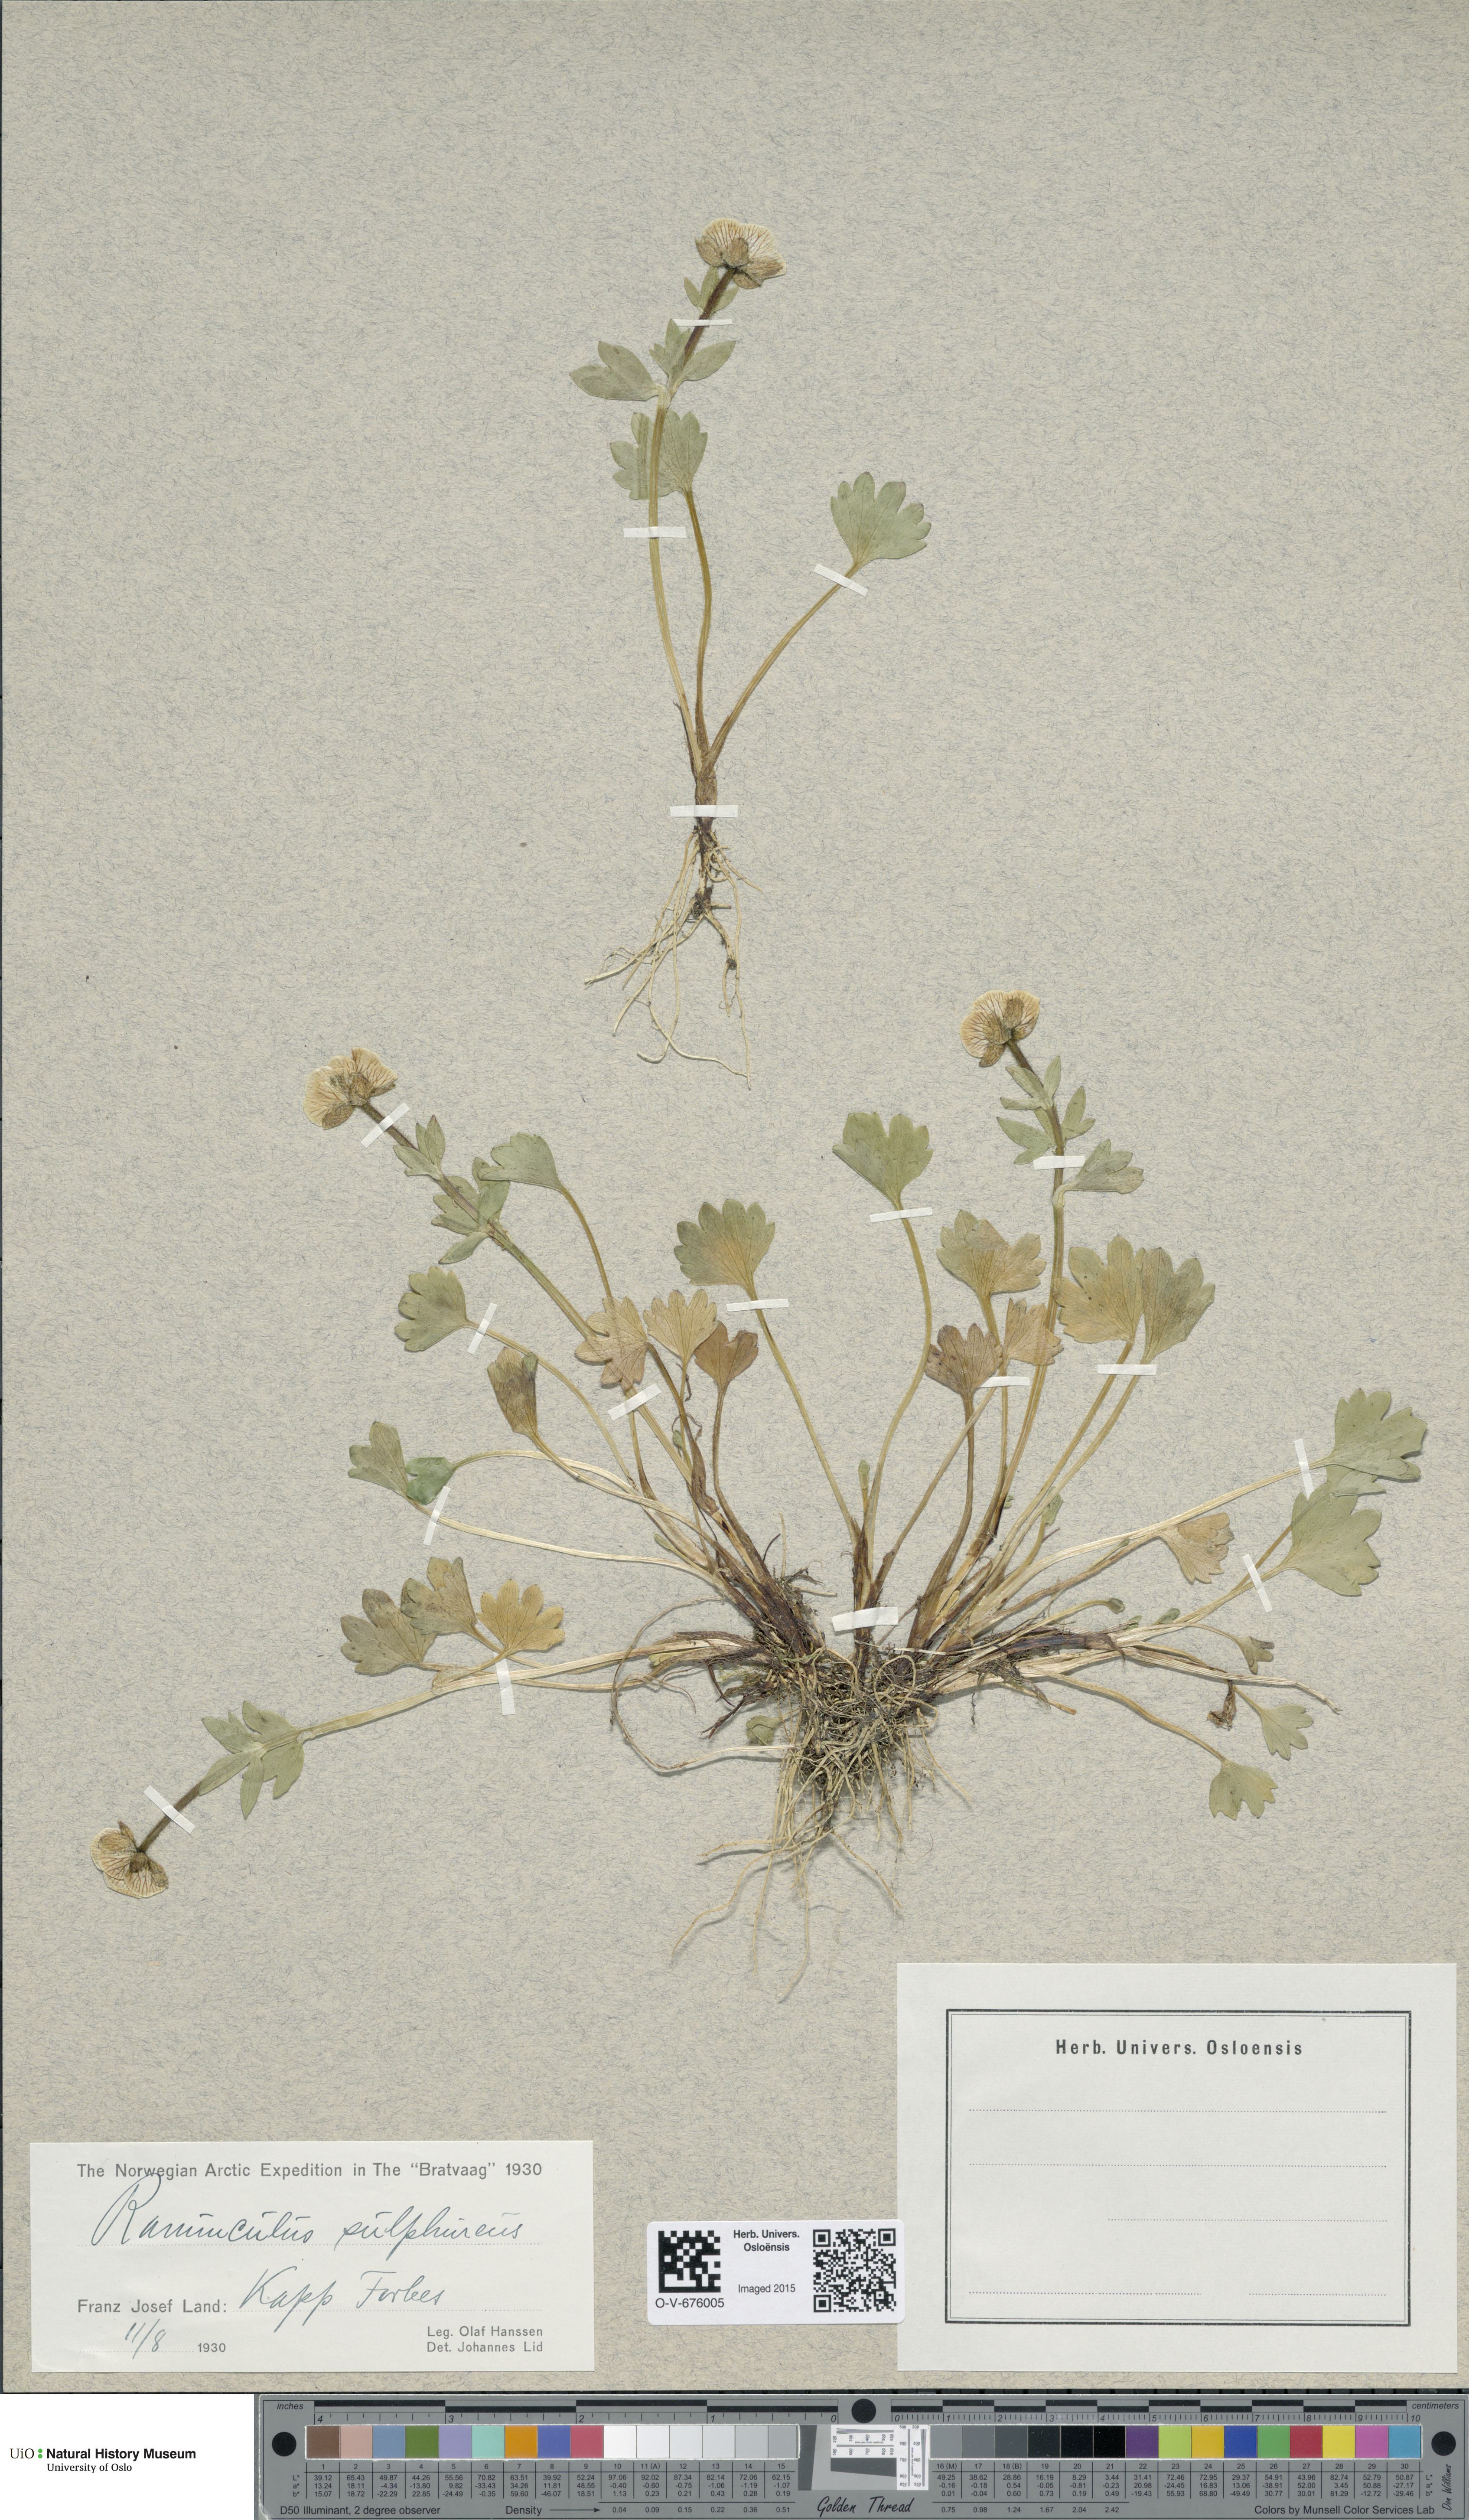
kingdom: Plantae
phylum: Tracheophyta
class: Magnoliopsida
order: Ranunculales
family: Ranunculaceae
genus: Ranunculus
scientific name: Ranunculus sulphureus
